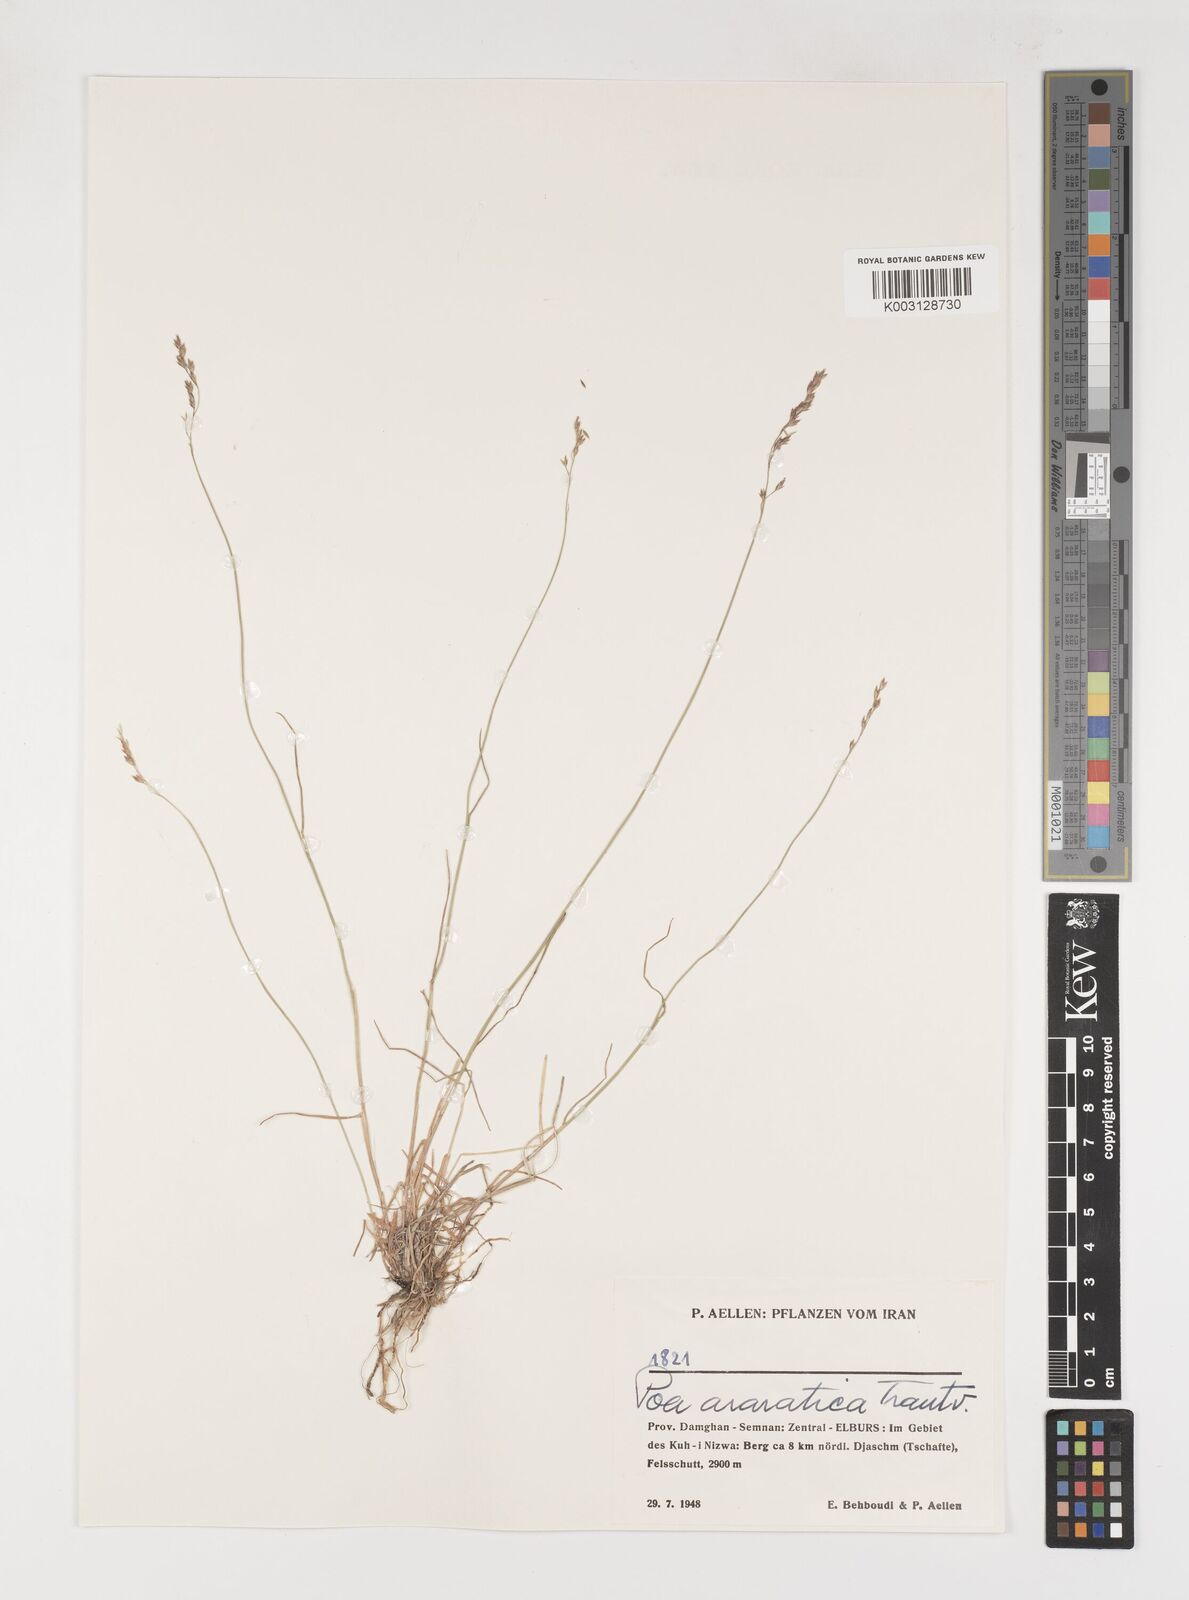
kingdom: Plantae
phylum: Tracheophyta
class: Liliopsida
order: Poales
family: Poaceae
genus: Poa
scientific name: Poa araratica
